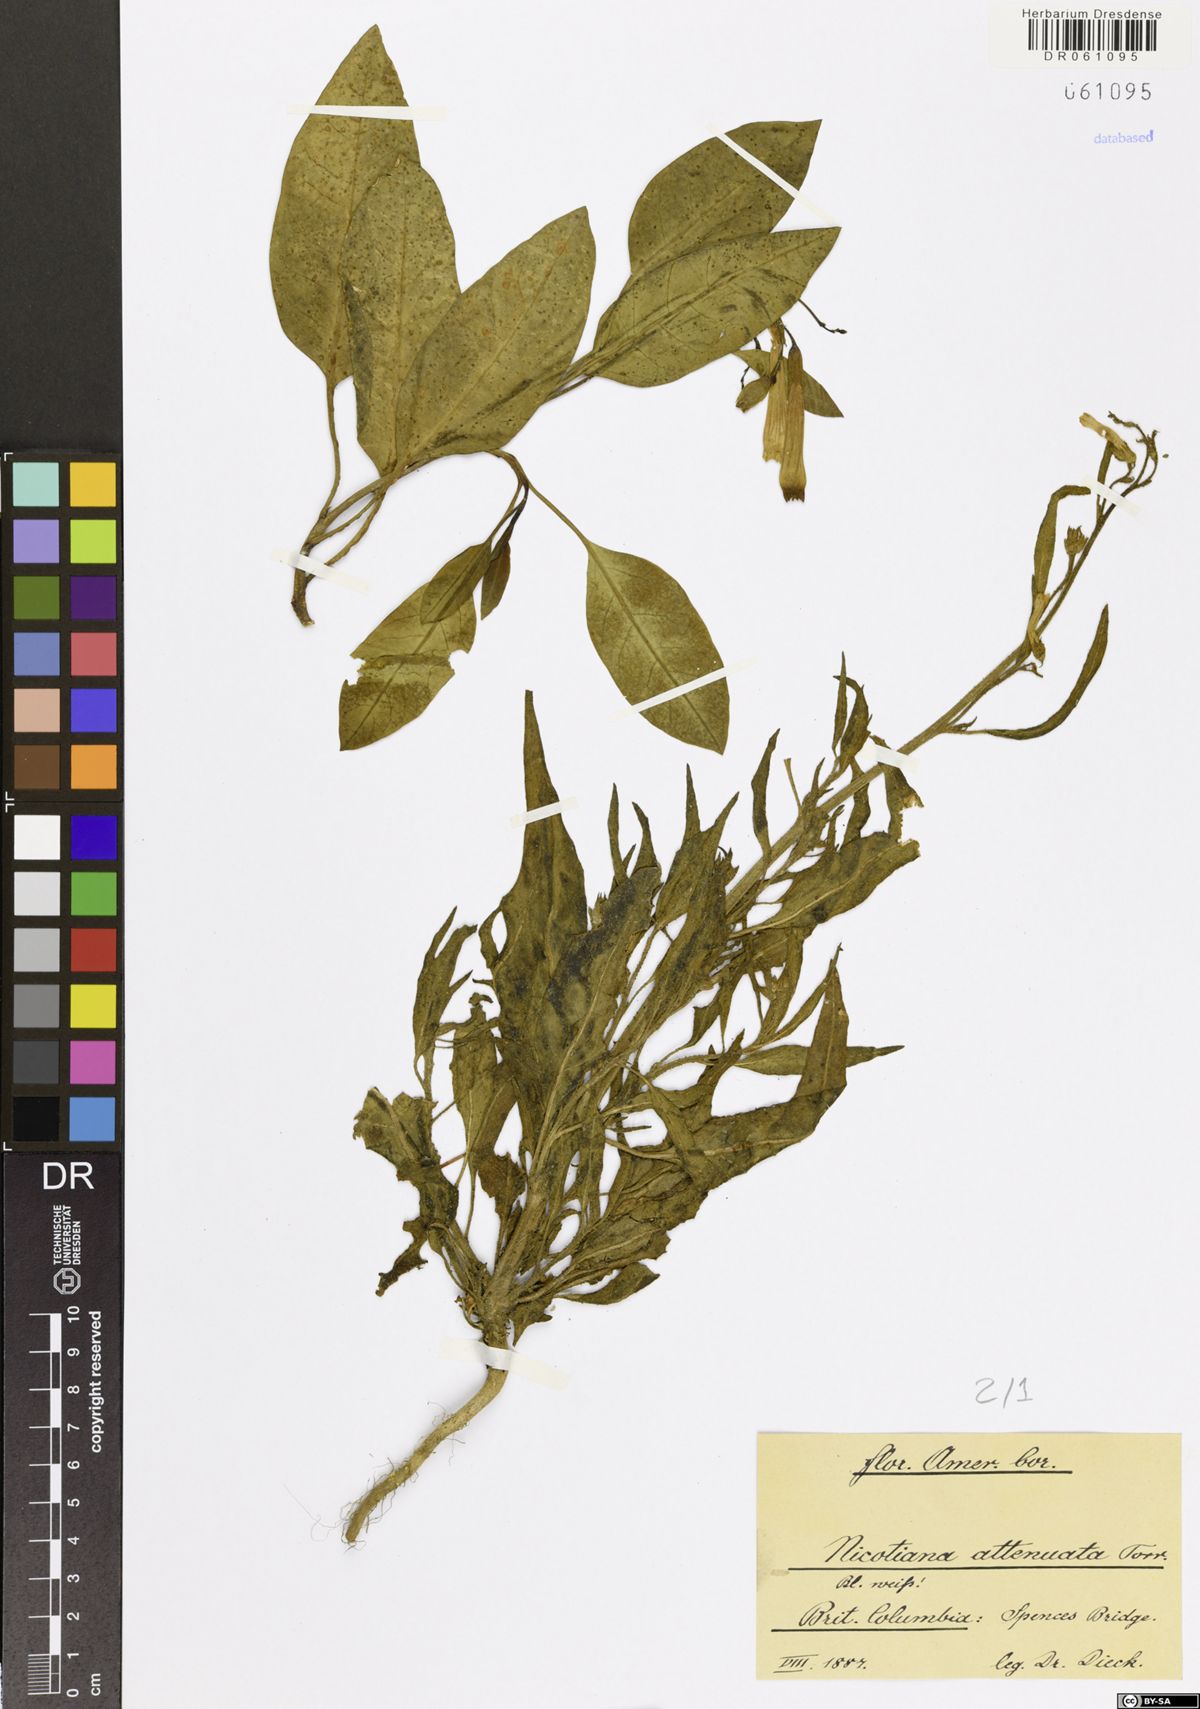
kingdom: Plantae
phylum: Tracheophyta
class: Magnoliopsida
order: Solanales
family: Solanaceae
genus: Nicotiana
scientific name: Nicotiana attenuata
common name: Coyote tobacco
